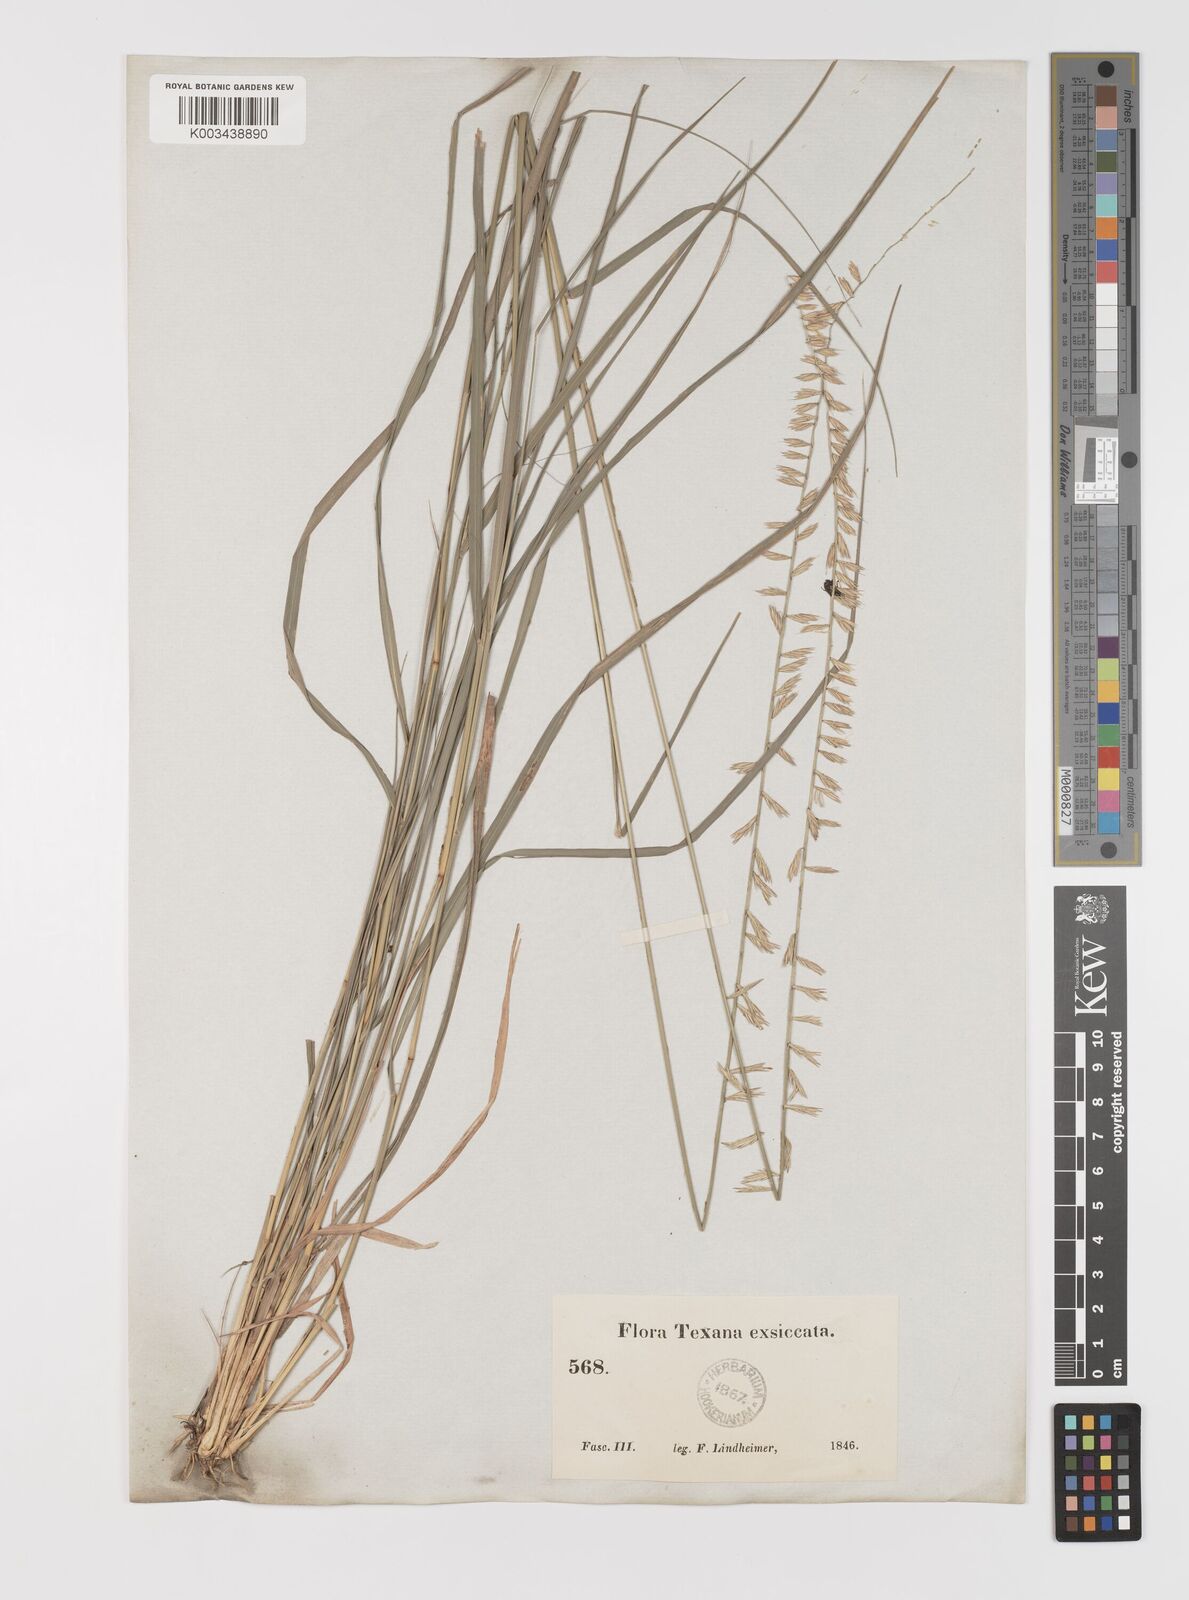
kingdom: Plantae
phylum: Tracheophyta
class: Liliopsida
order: Poales
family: Poaceae
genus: Bouteloua
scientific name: Bouteloua curtipendula
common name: Side-oats grama
